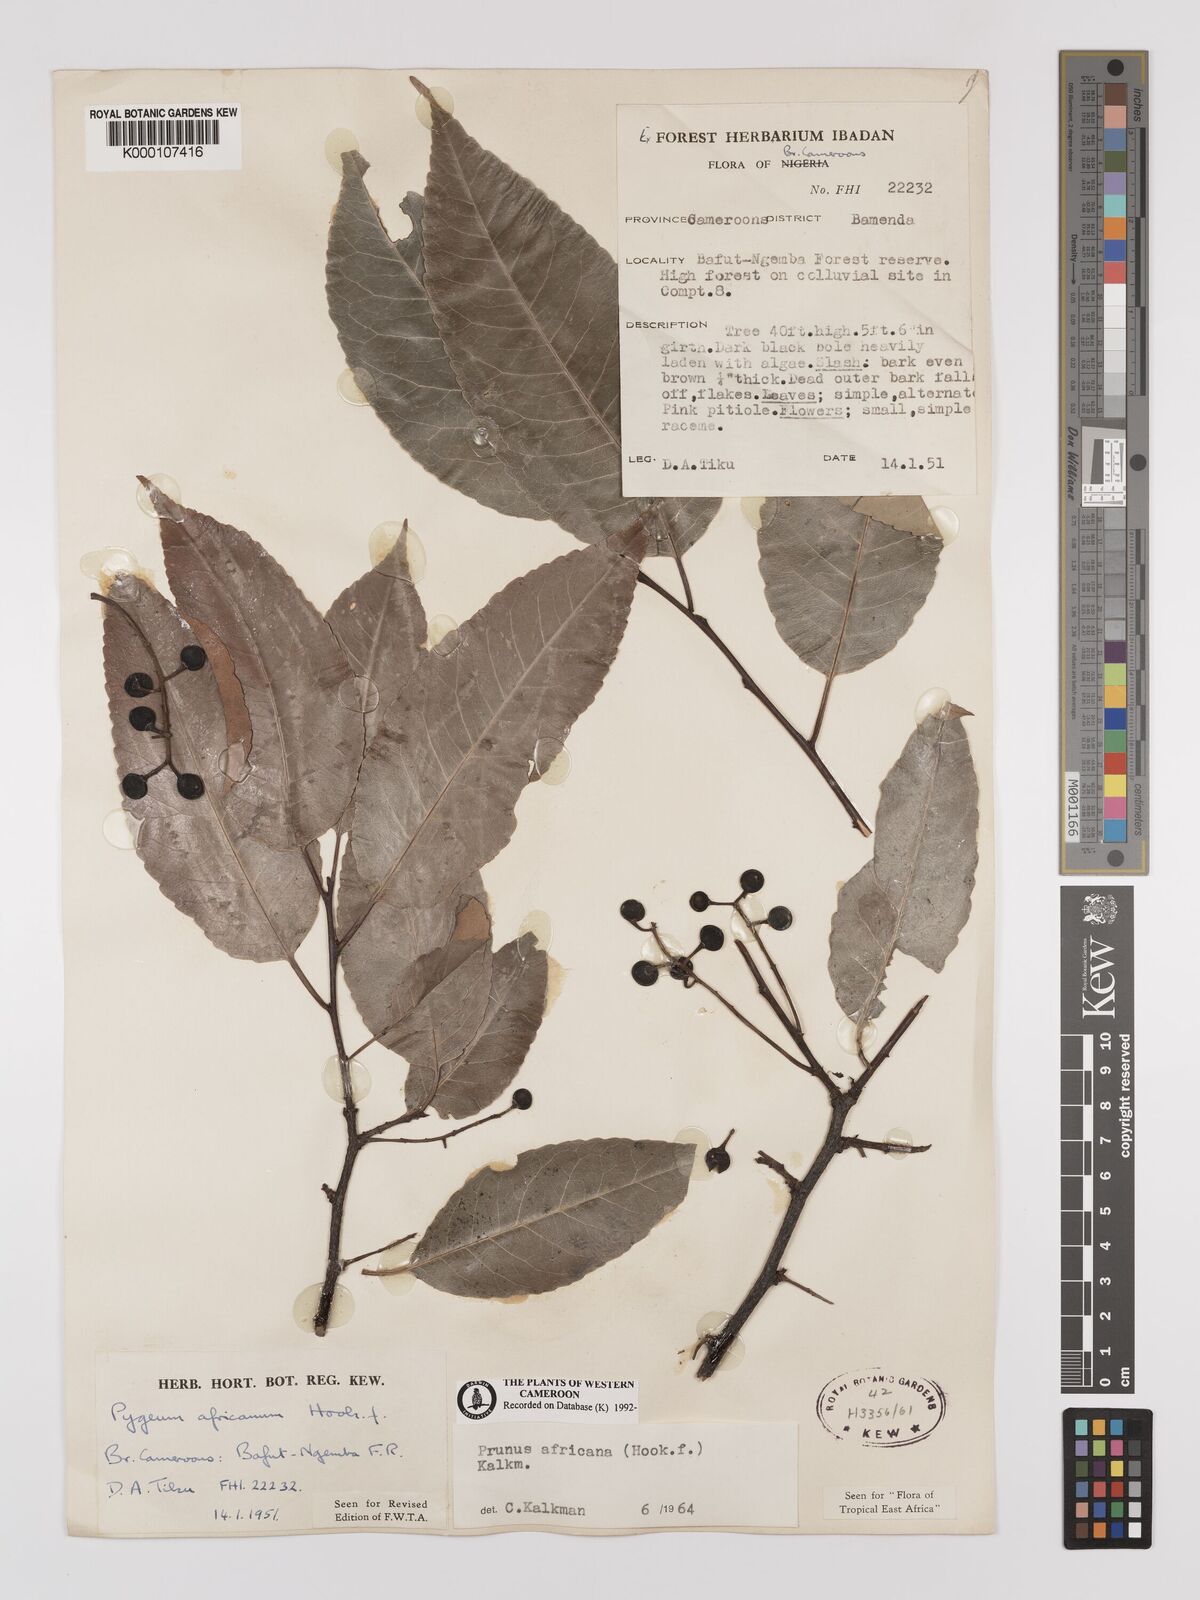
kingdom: Plantae
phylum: Tracheophyta
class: Magnoliopsida
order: Rosales
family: Rosaceae
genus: Prunus
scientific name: Prunus africana
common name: African cherry
